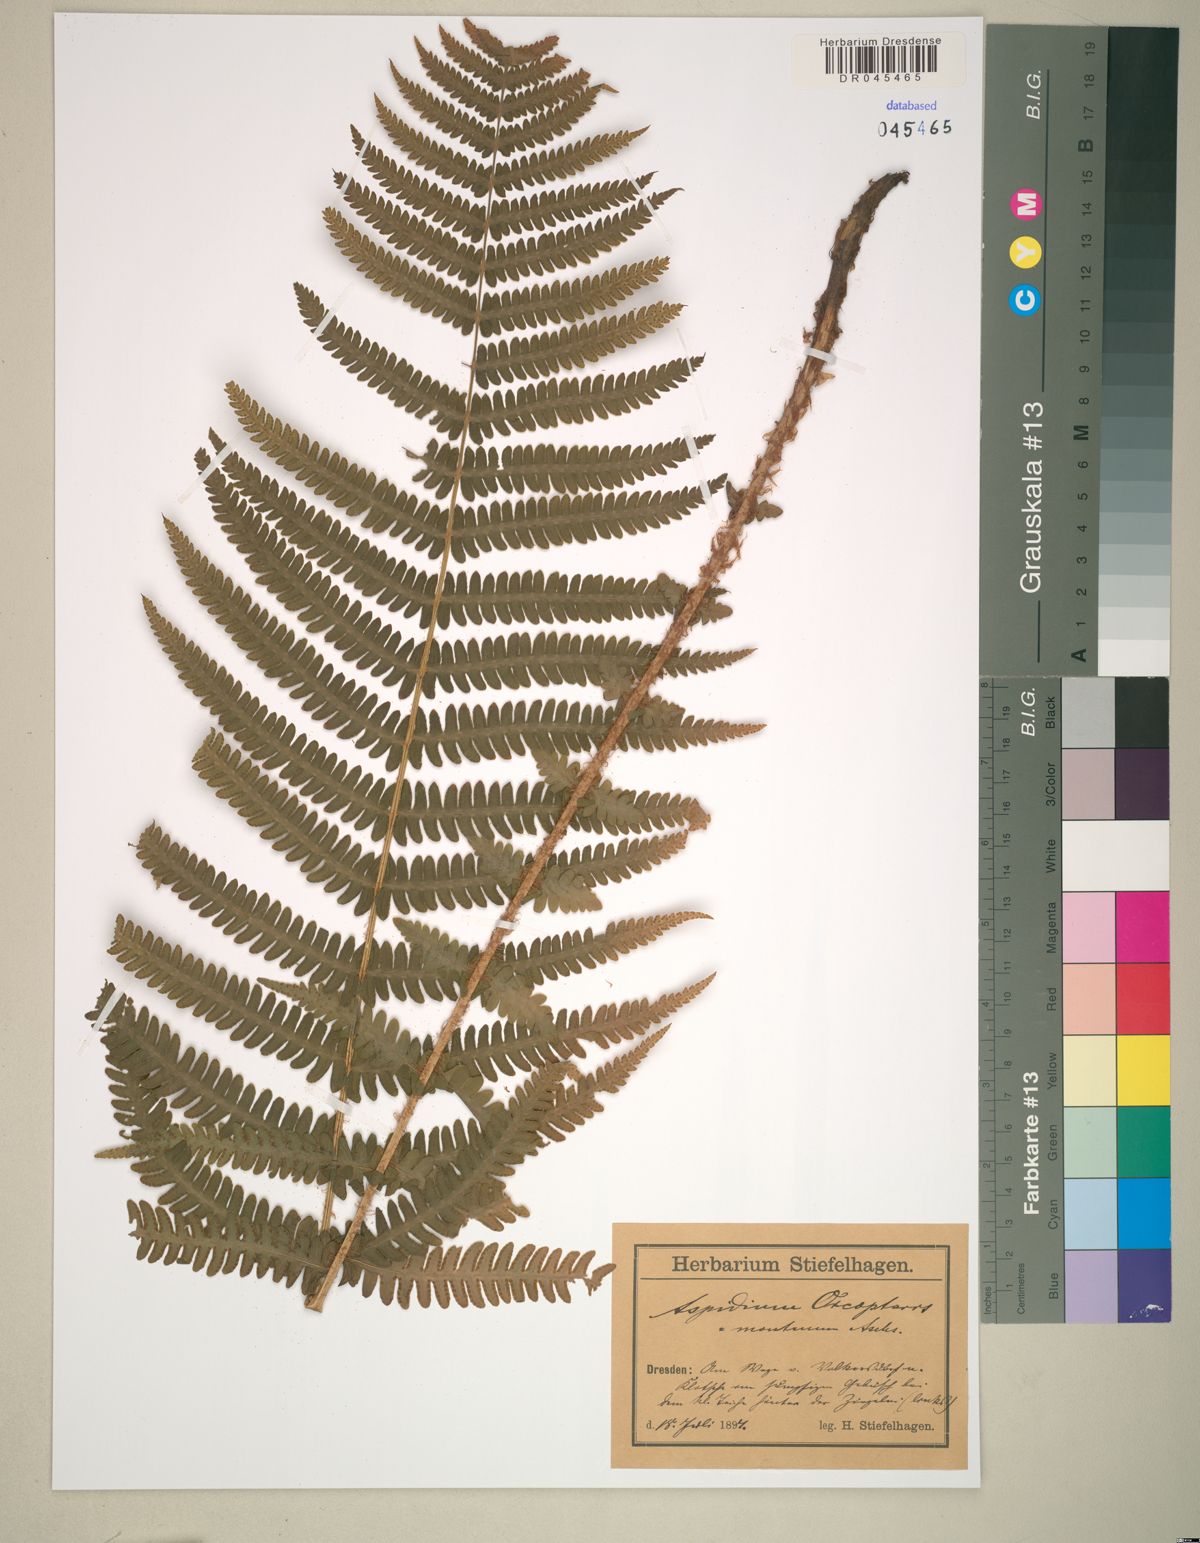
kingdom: Plantae
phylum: Tracheophyta
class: Polypodiopsida
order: Polypodiales
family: Cystopteridaceae
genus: Cystopteris
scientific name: Cystopteris montana
